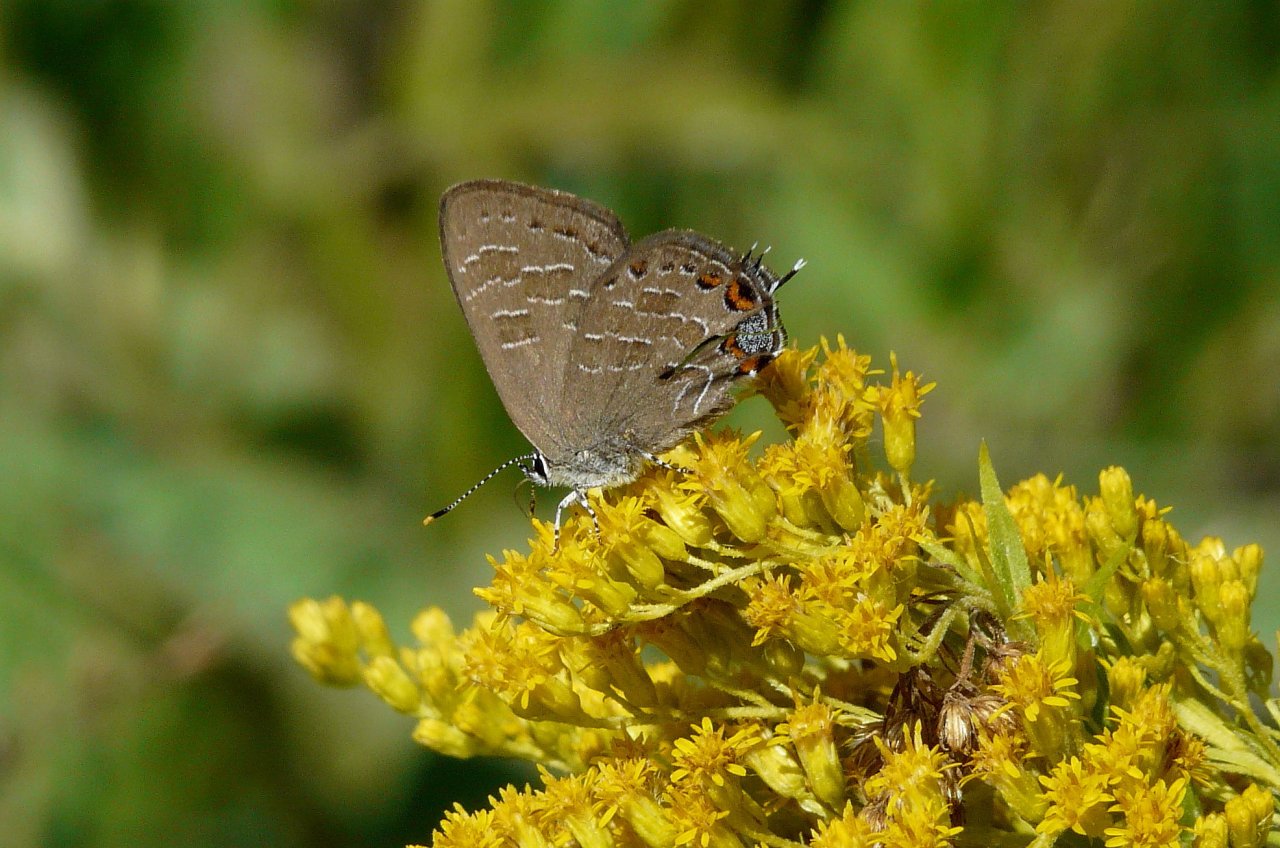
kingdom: Animalia
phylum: Arthropoda
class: Insecta
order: Lepidoptera
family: Lycaenidae
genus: Satyrium
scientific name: Satyrium liparops
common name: Striped Hairstreak
